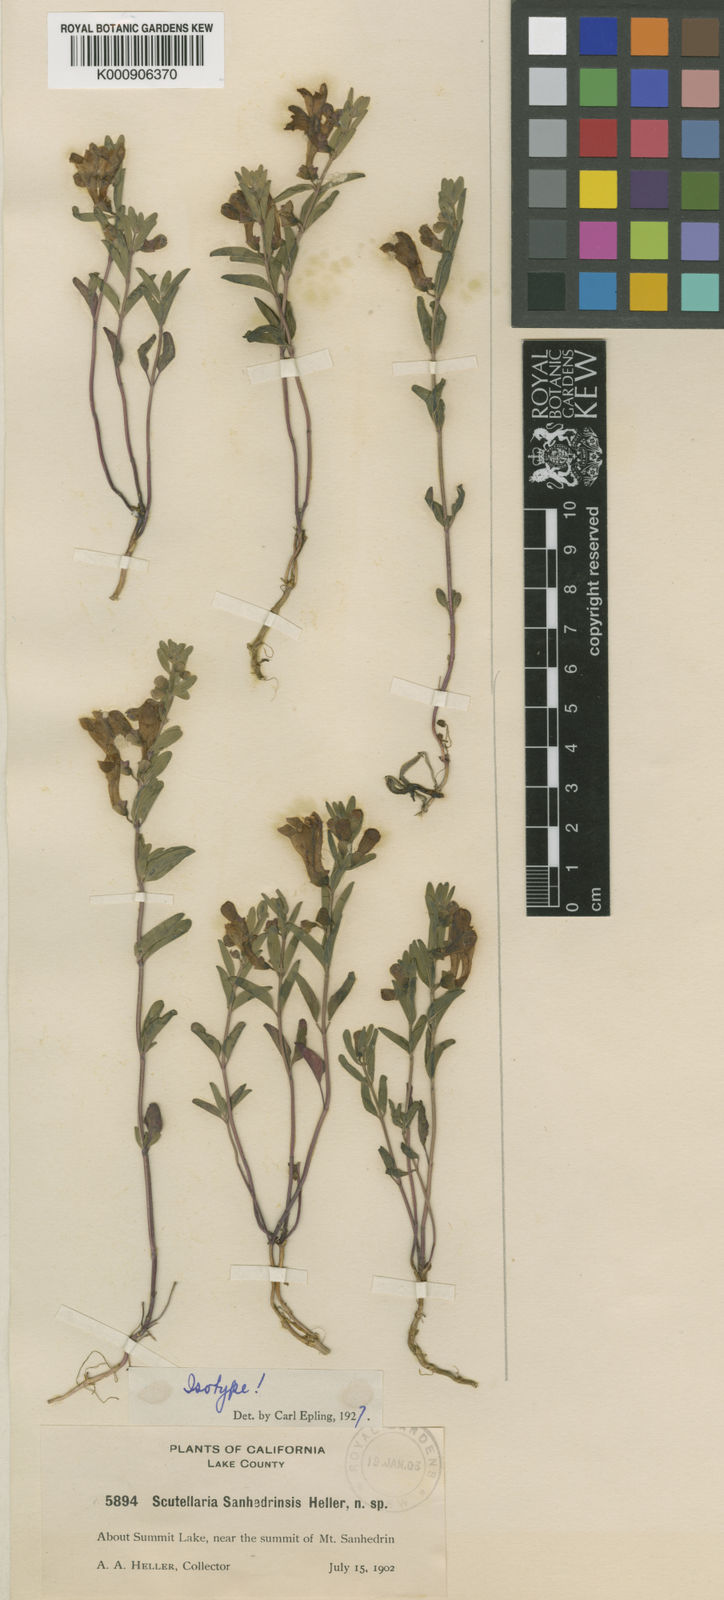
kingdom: Plantae
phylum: Tracheophyta
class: Magnoliopsida
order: Lamiales
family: Lamiaceae
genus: Scutellaria
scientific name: Scutellaria antirrhinoides
